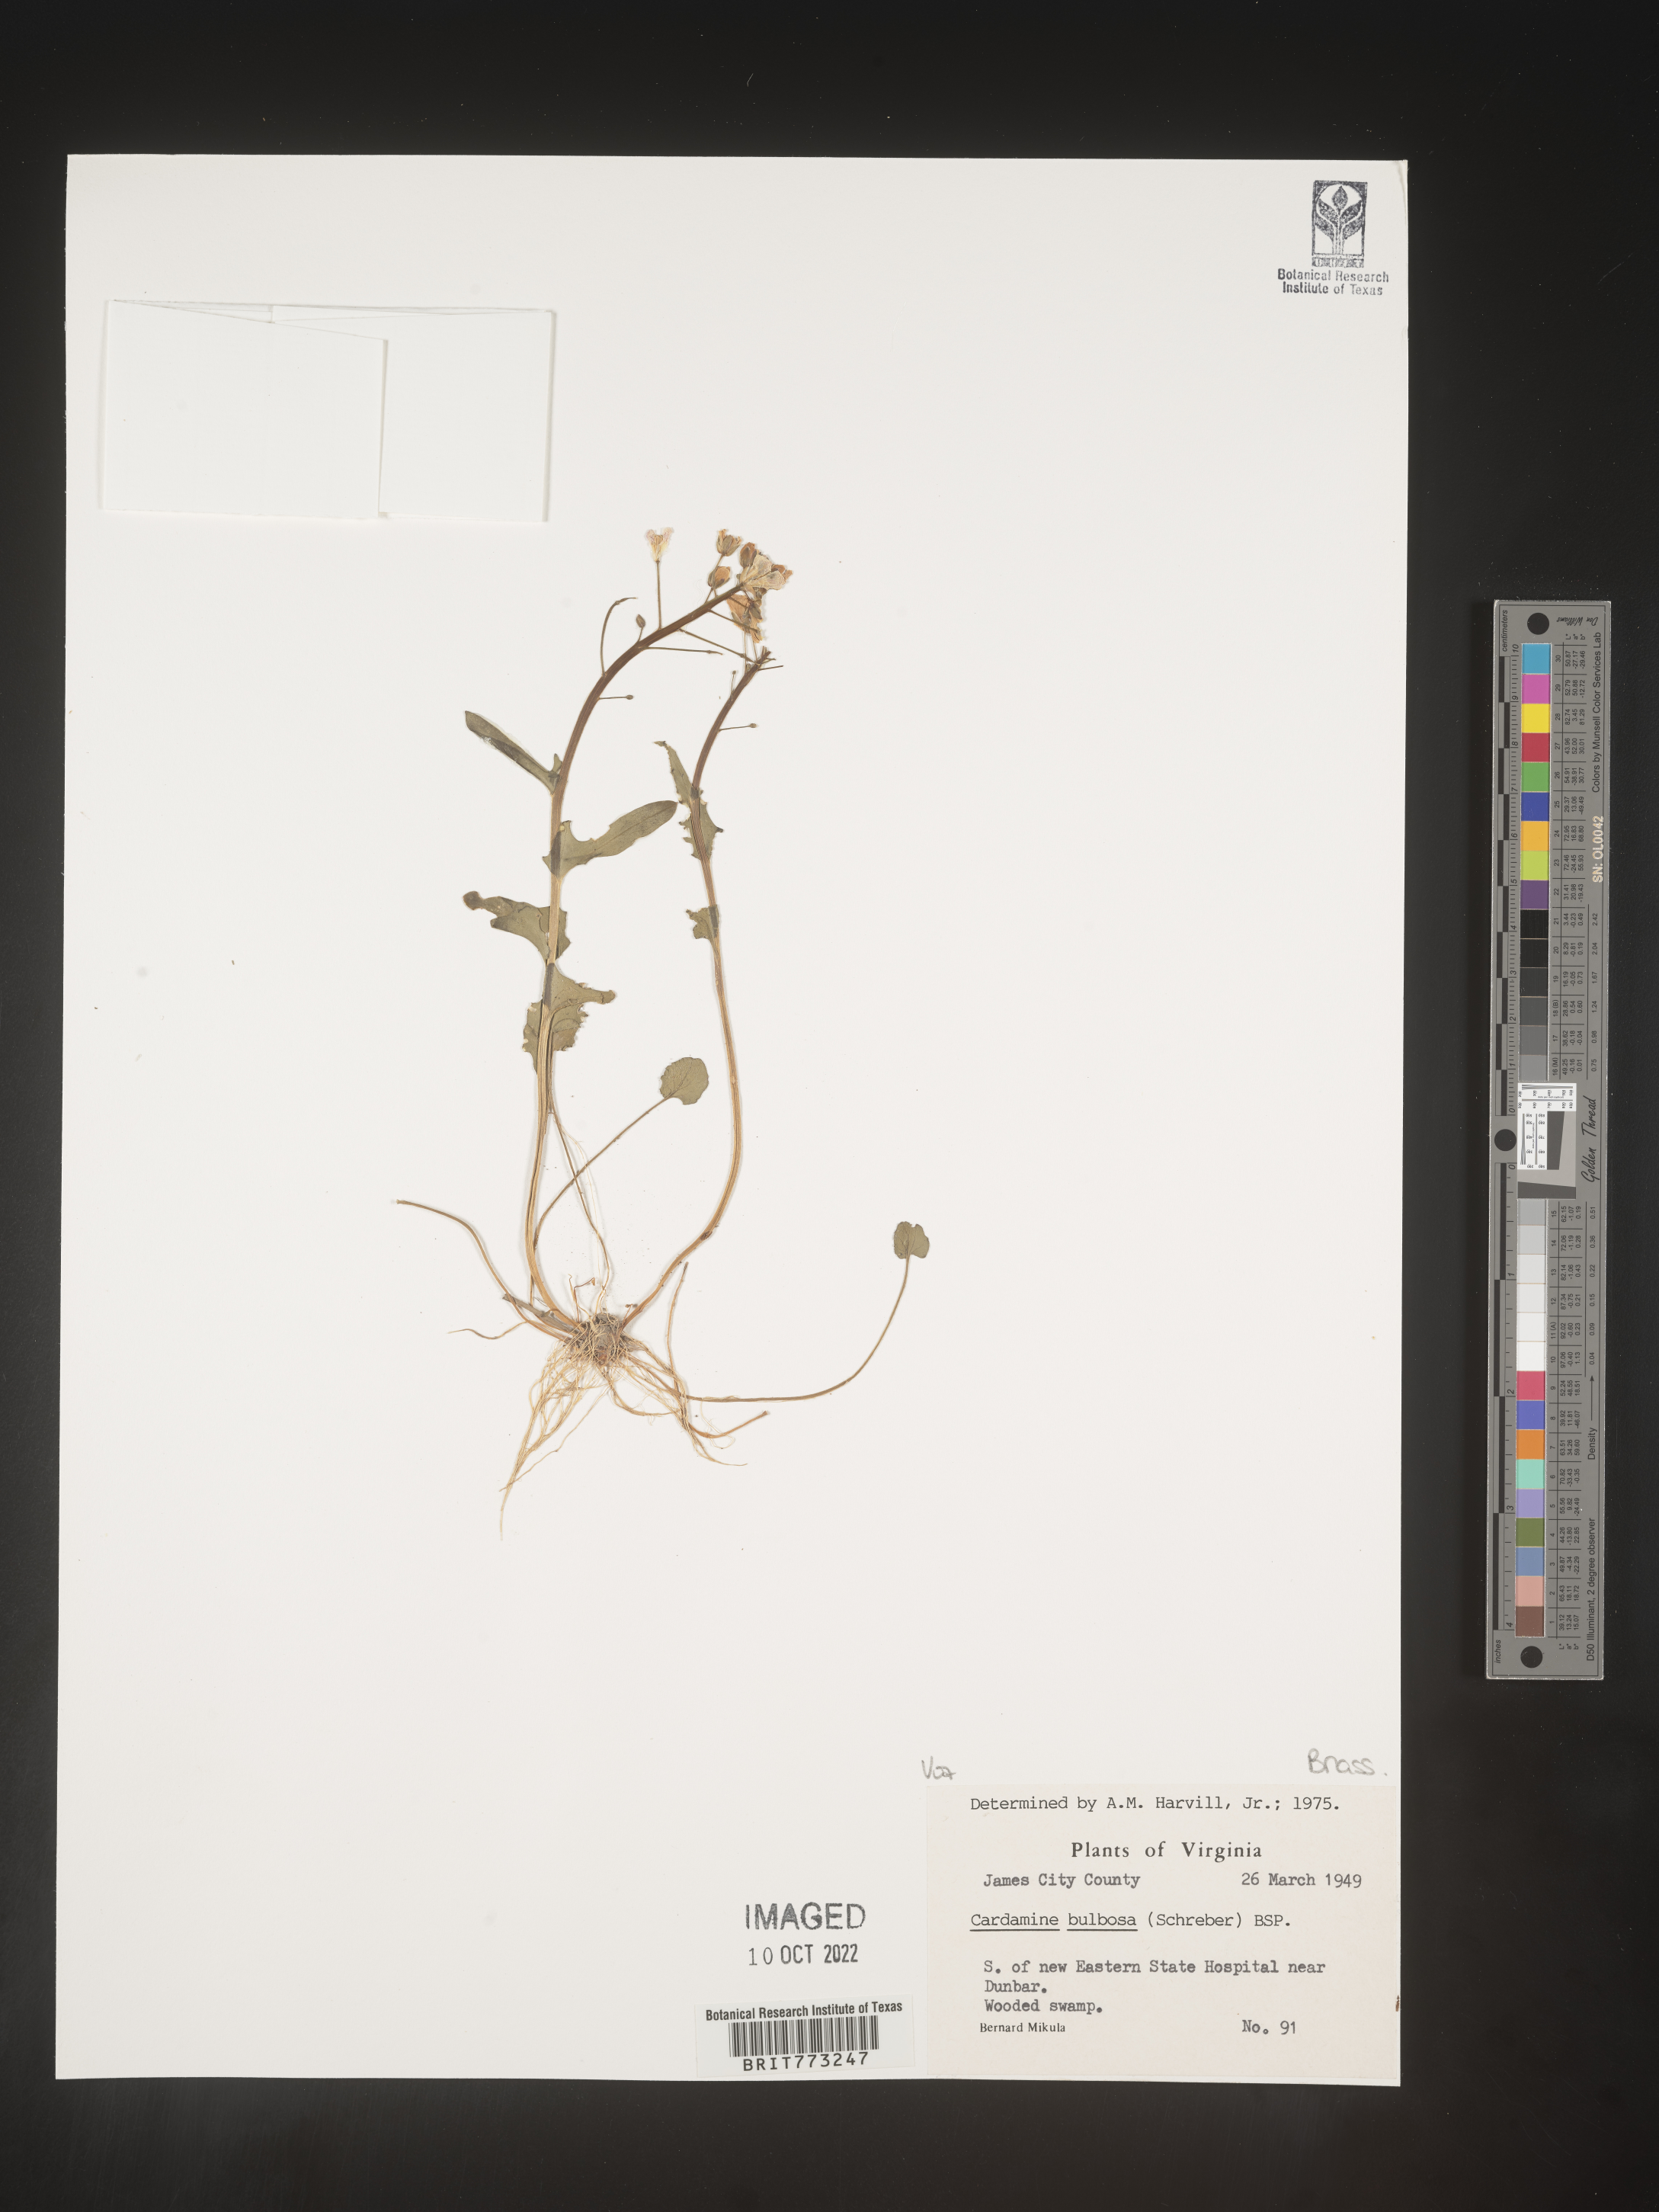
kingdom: Plantae
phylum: Tracheophyta
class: Magnoliopsida
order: Brassicales
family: Brassicaceae
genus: Cardamine
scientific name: Cardamine bulbosa
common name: Spring cress
